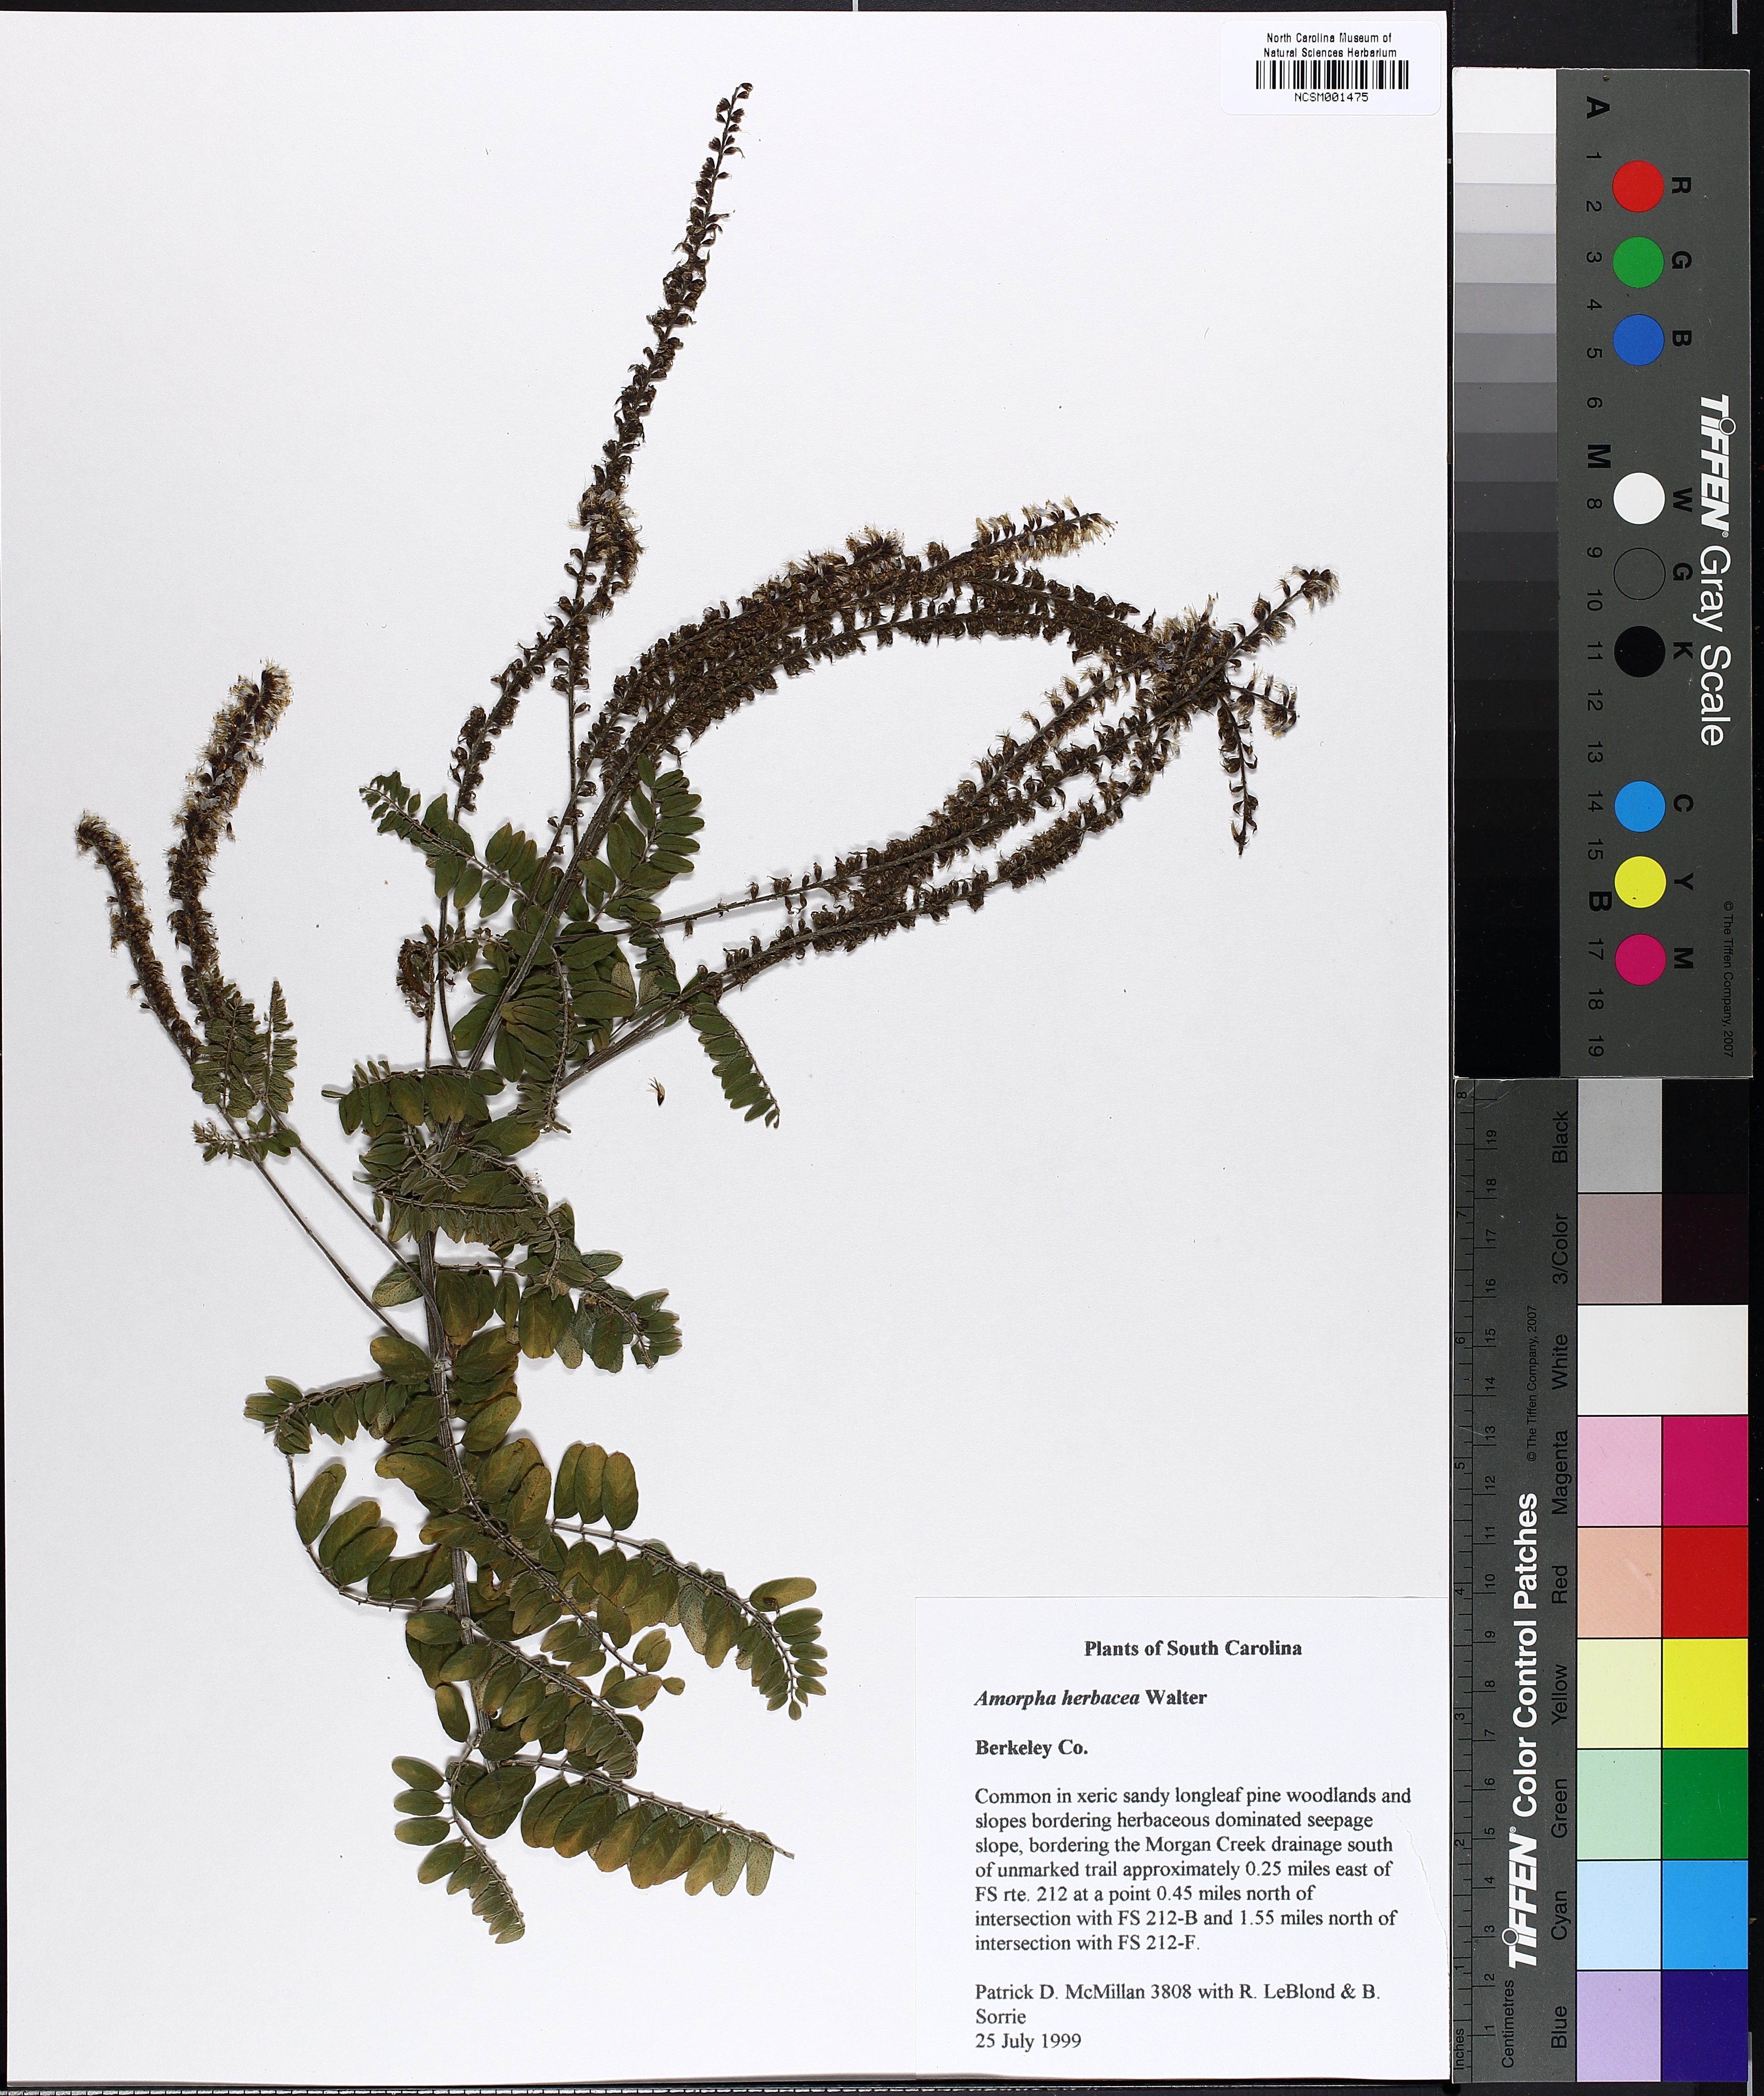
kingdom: Plantae
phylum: Tracheophyta
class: Magnoliopsida
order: Fabales
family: Fabaceae
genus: Amorpha
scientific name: Amorpha herbacea
